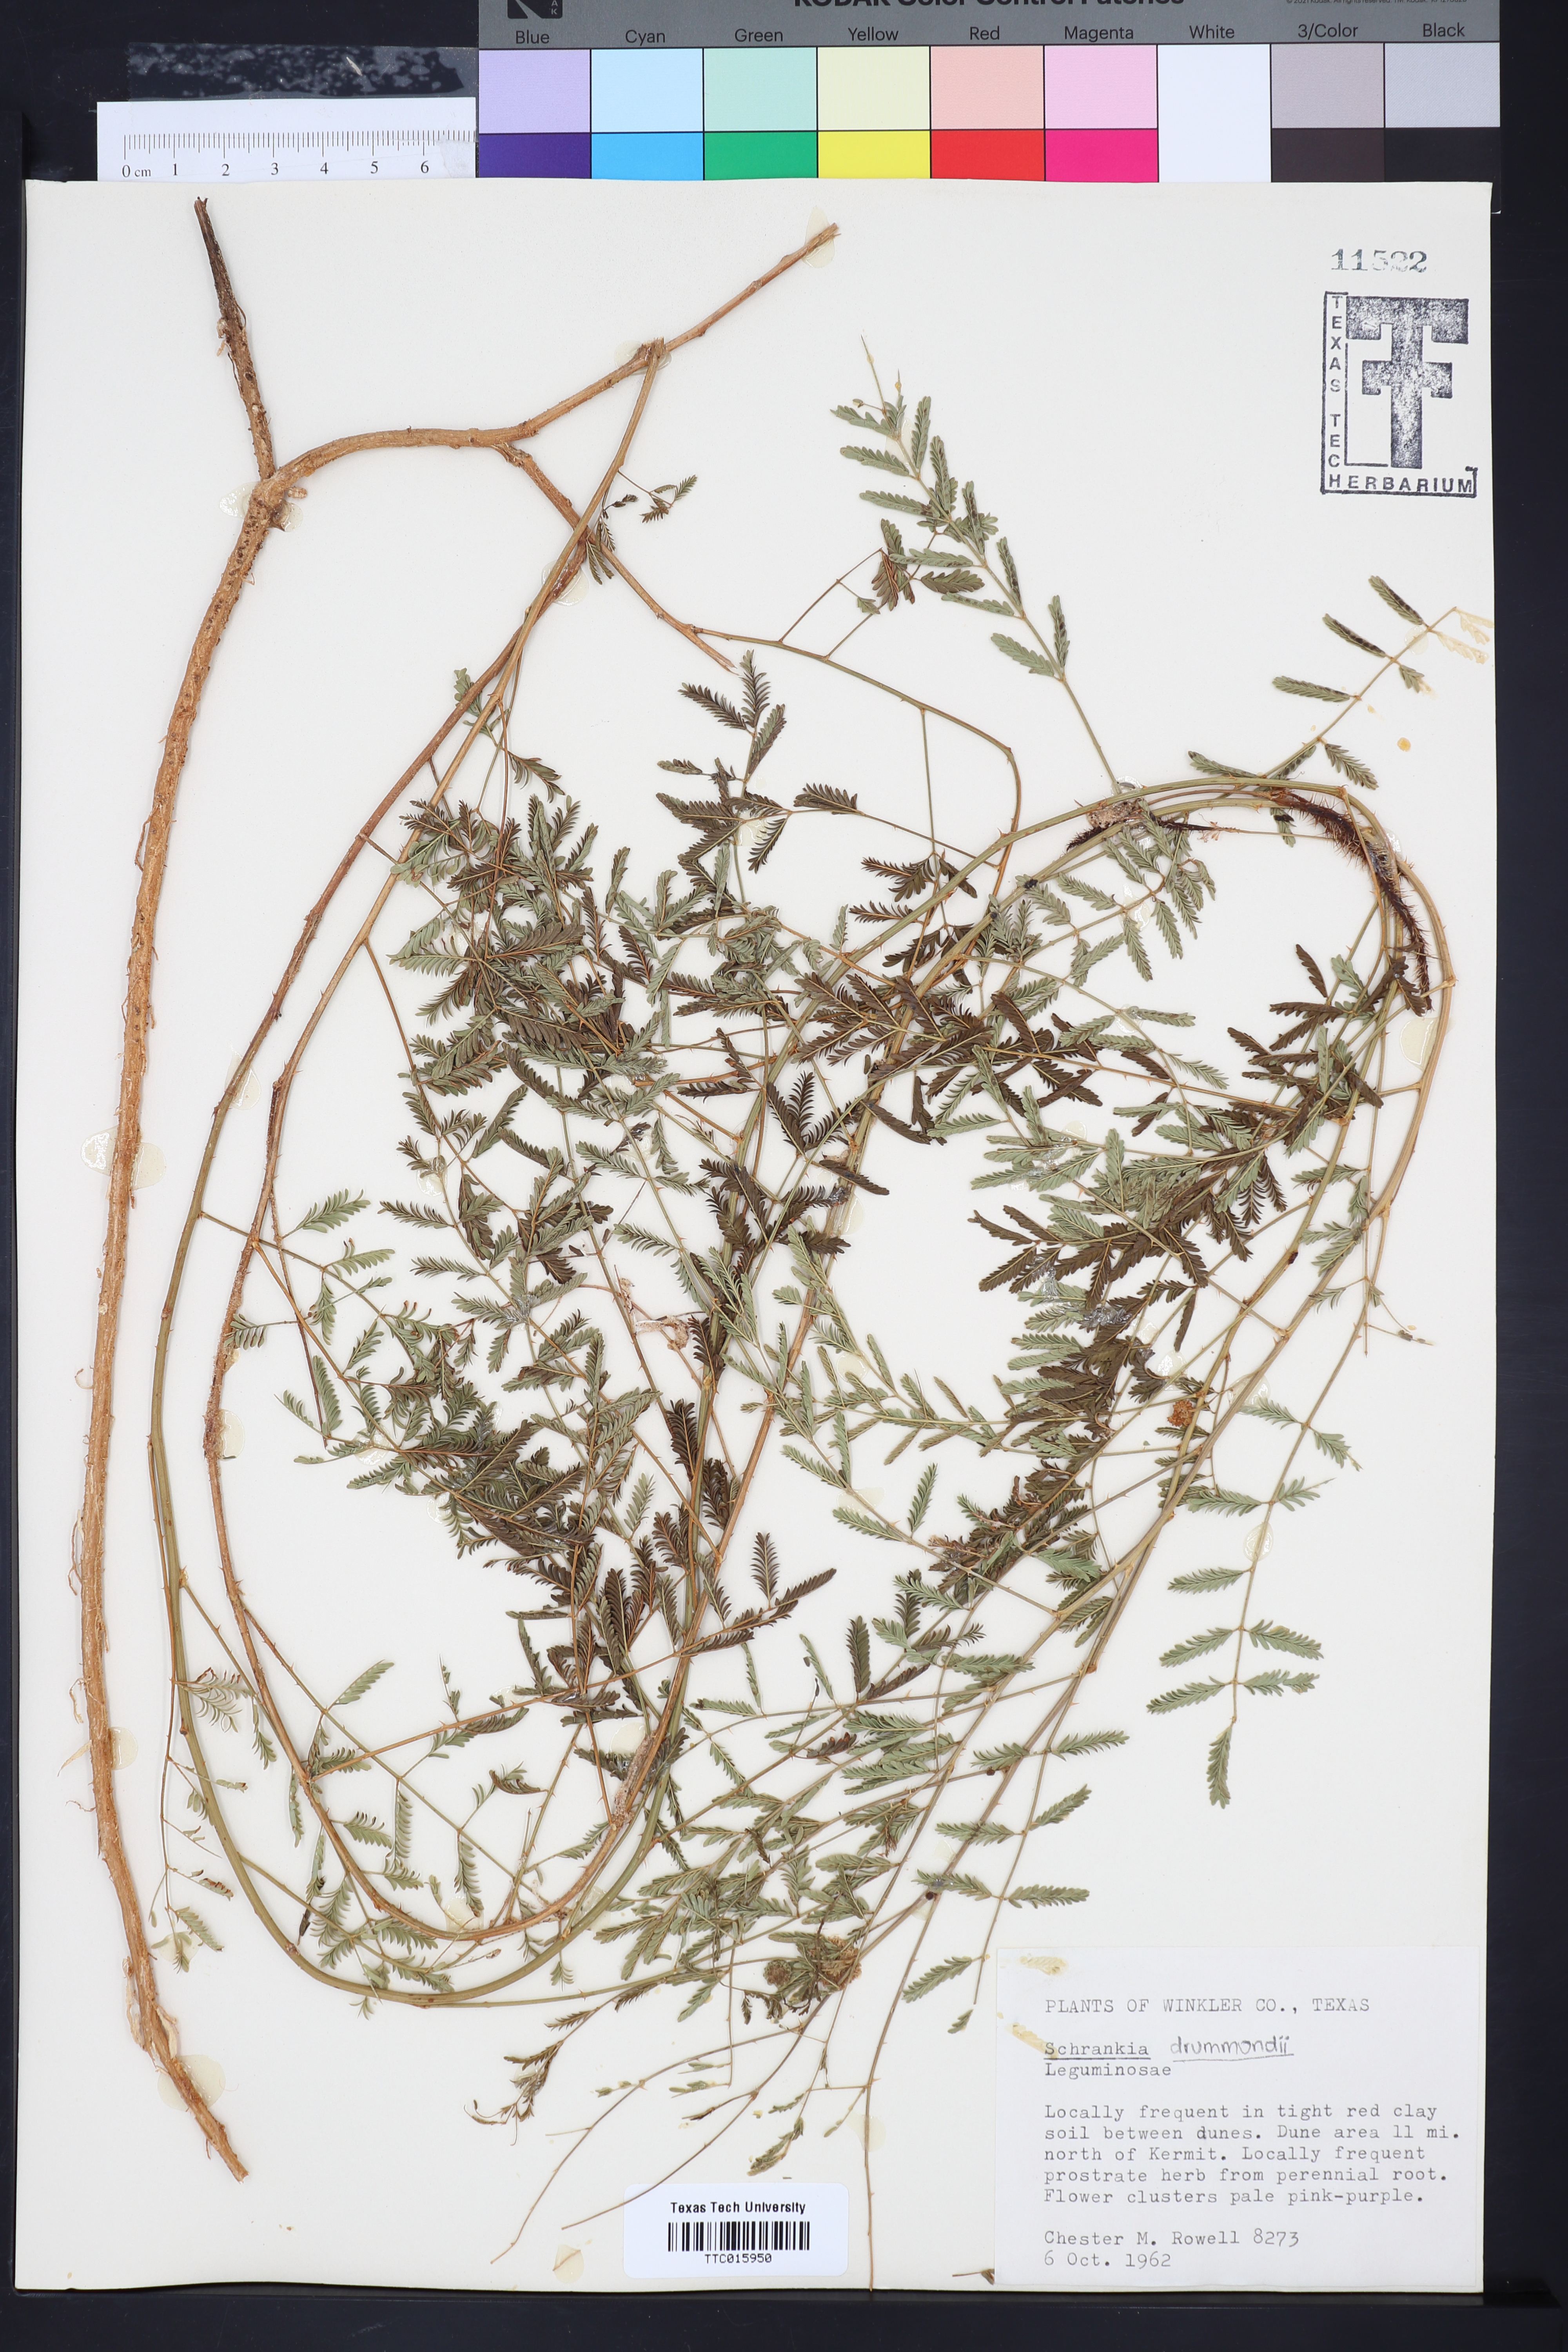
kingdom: Animalia
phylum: Arthropoda
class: Insecta
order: Lepidoptera
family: Erebidae
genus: Schrankia
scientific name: Schrankia
